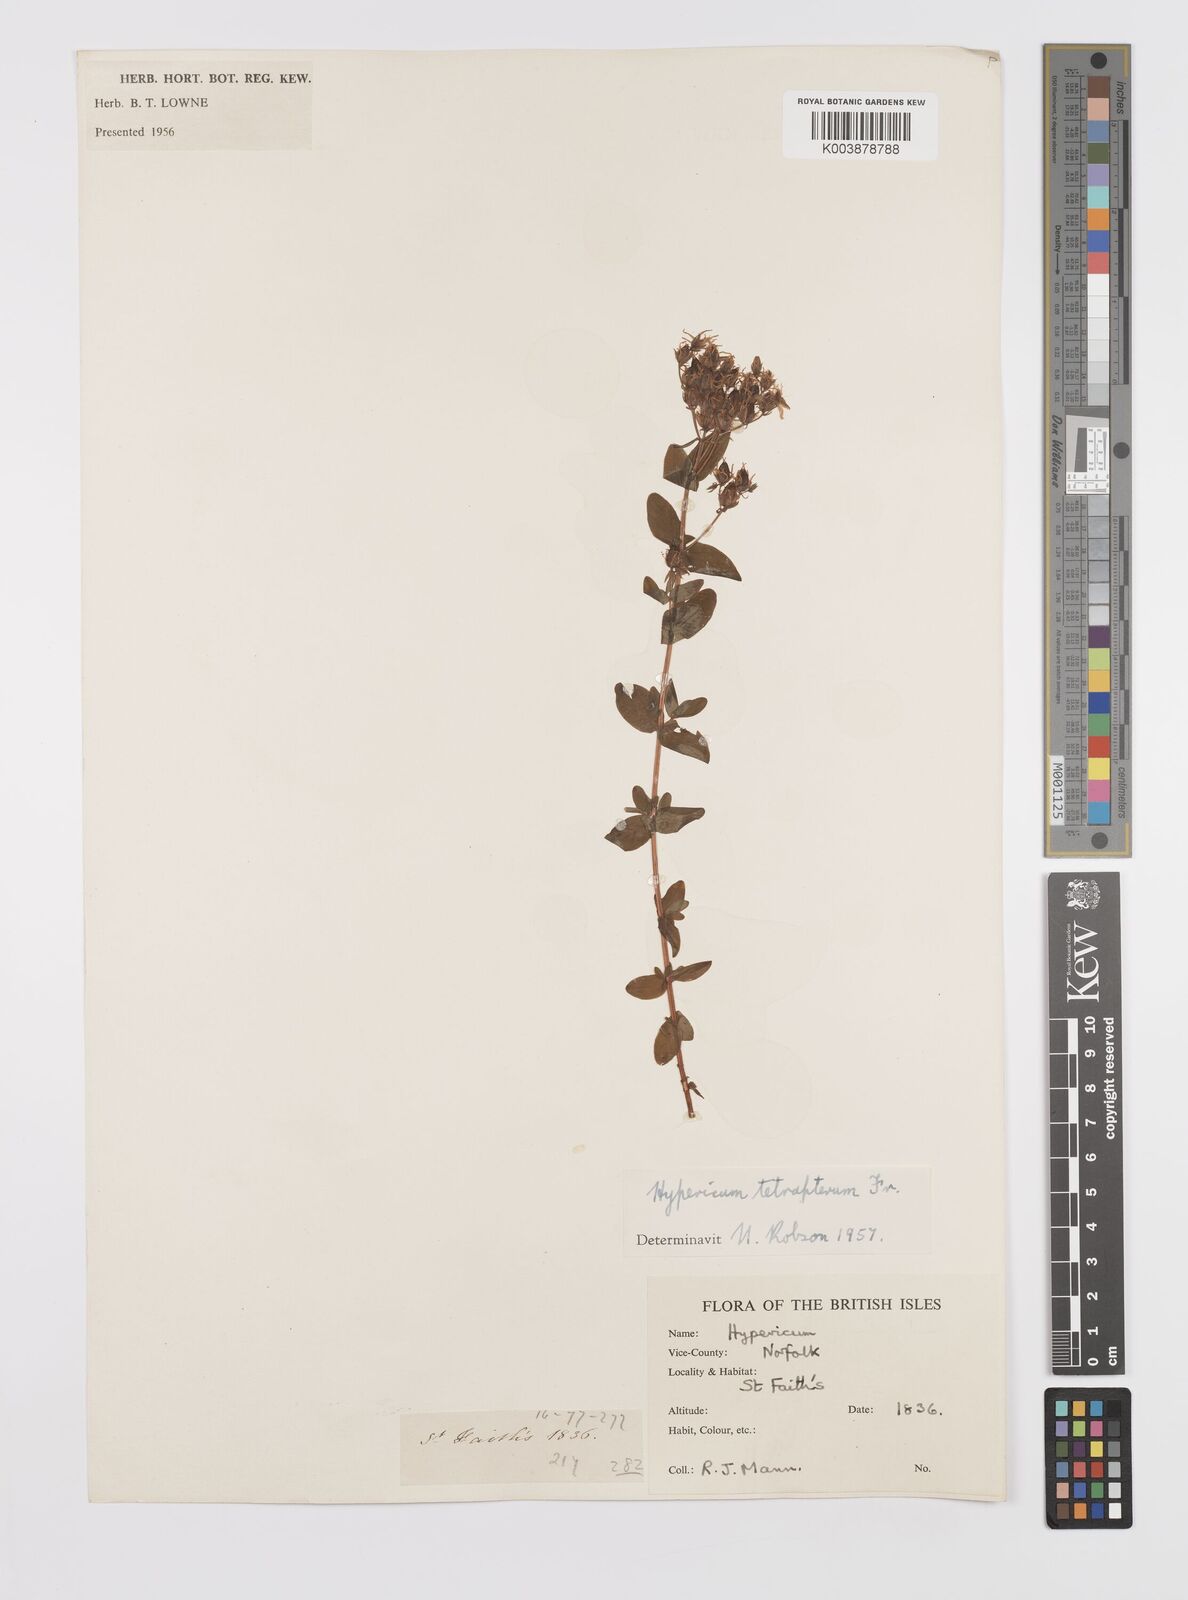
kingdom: Plantae
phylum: Tracheophyta
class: Magnoliopsida
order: Malpighiales
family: Hypericaceae
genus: Hypericum
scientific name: Hypericum tetrapterum
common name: Square-stalked st. john's-wort
